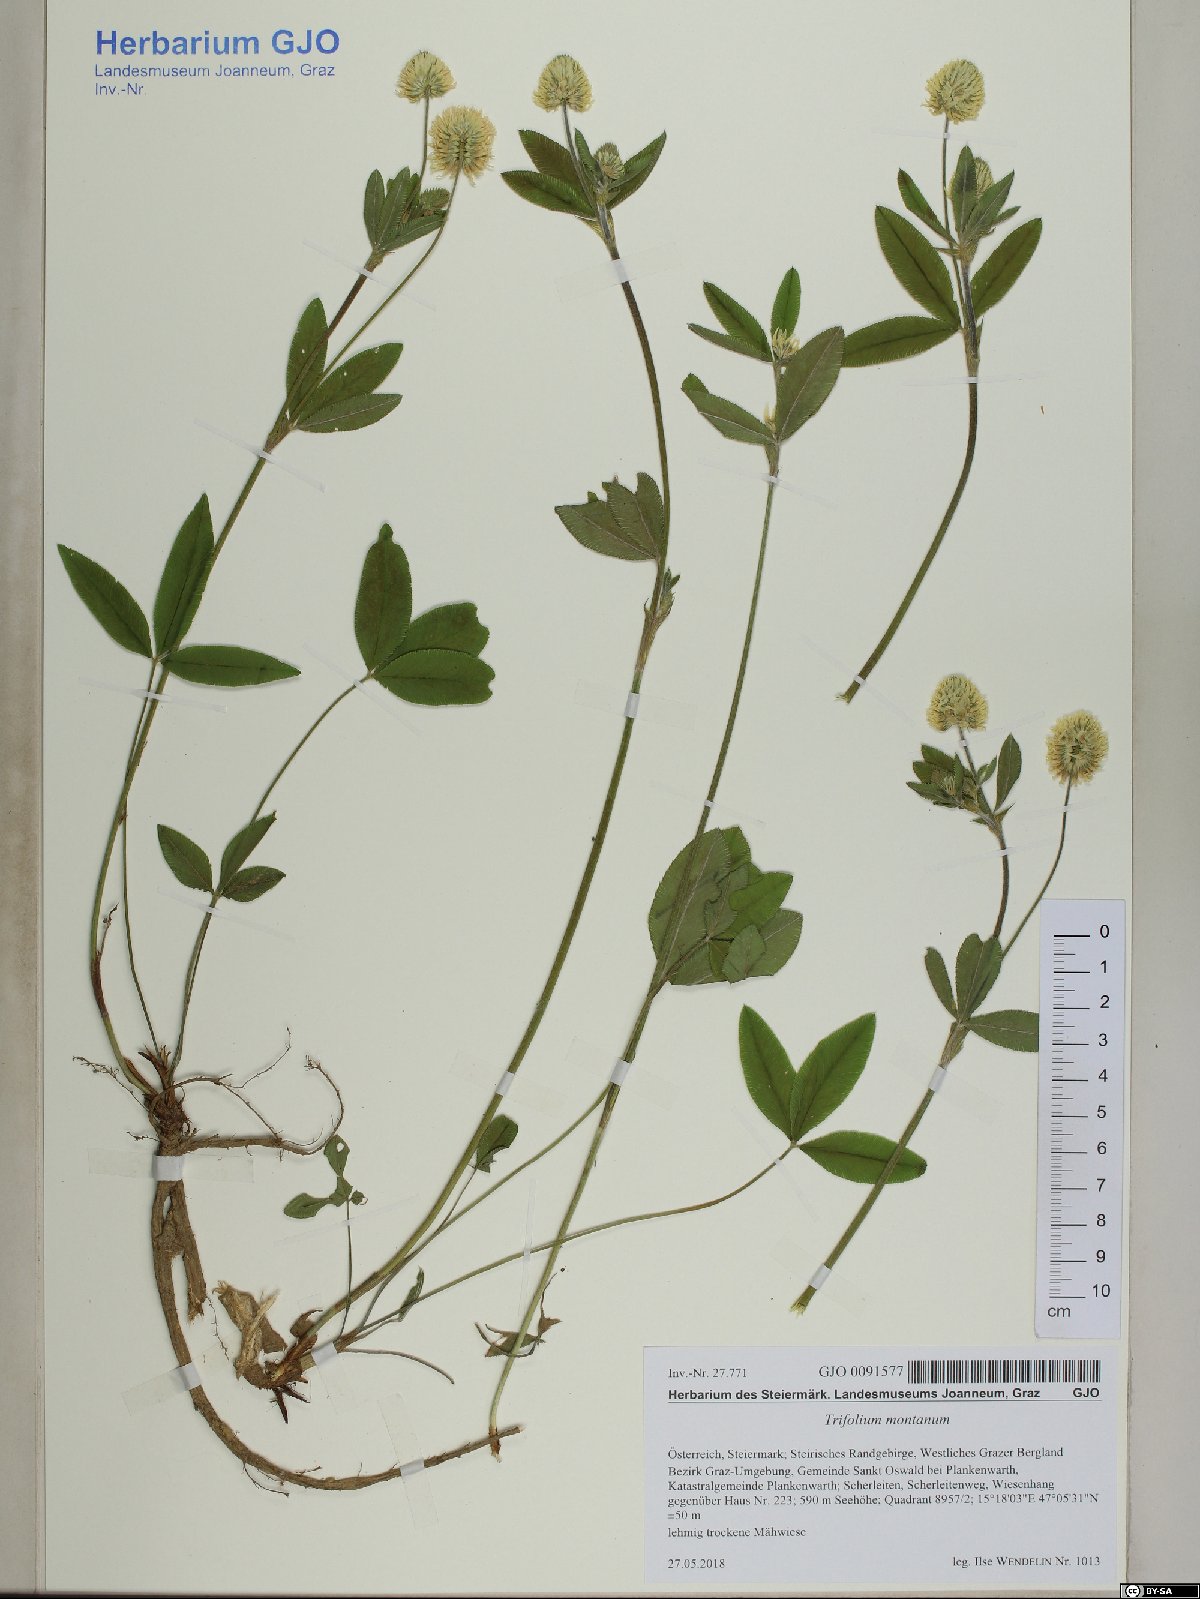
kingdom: Plantae
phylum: Tracheophyta
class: Magnoliopsida
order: Fabales
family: Fabaceae
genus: Trifolium
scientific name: Trifolium montanum
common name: Mountain clover
